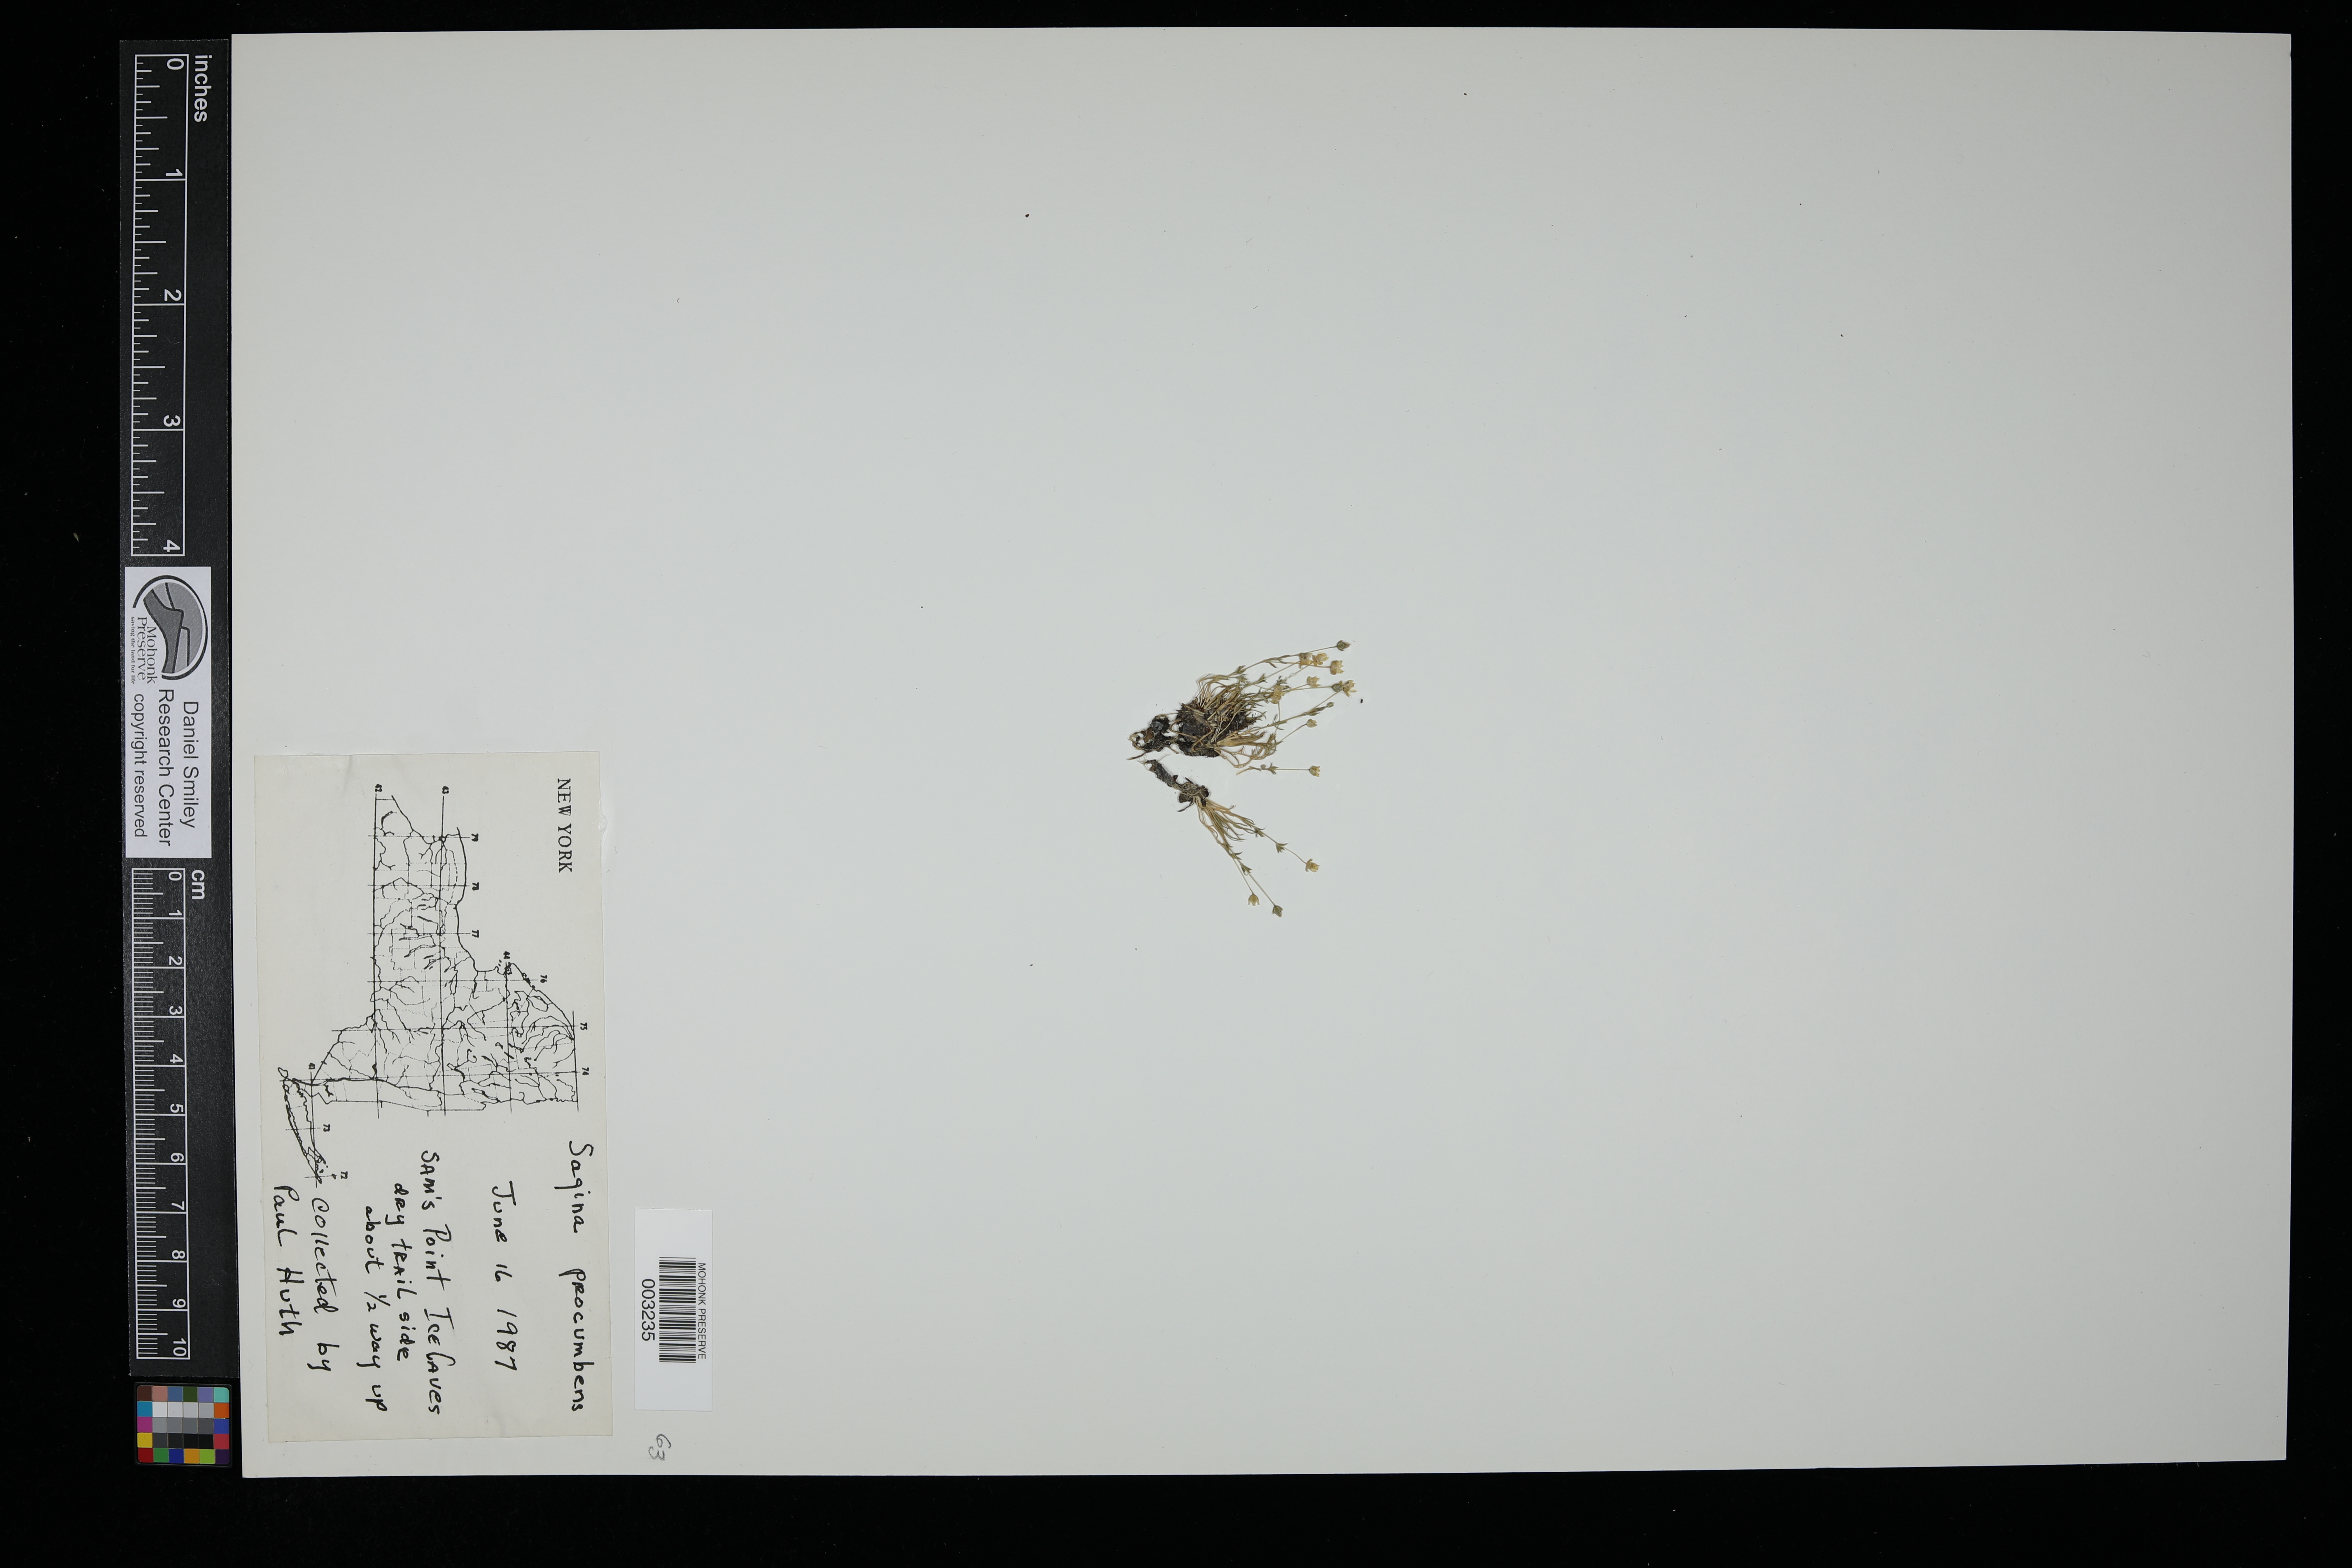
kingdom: Plantae
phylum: Tracheophyta
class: Magnoliopsida
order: Caryophyllales
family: Caryophyllaceae
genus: Sagina
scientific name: Sagina procumbens
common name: Procumbent pearlwort
